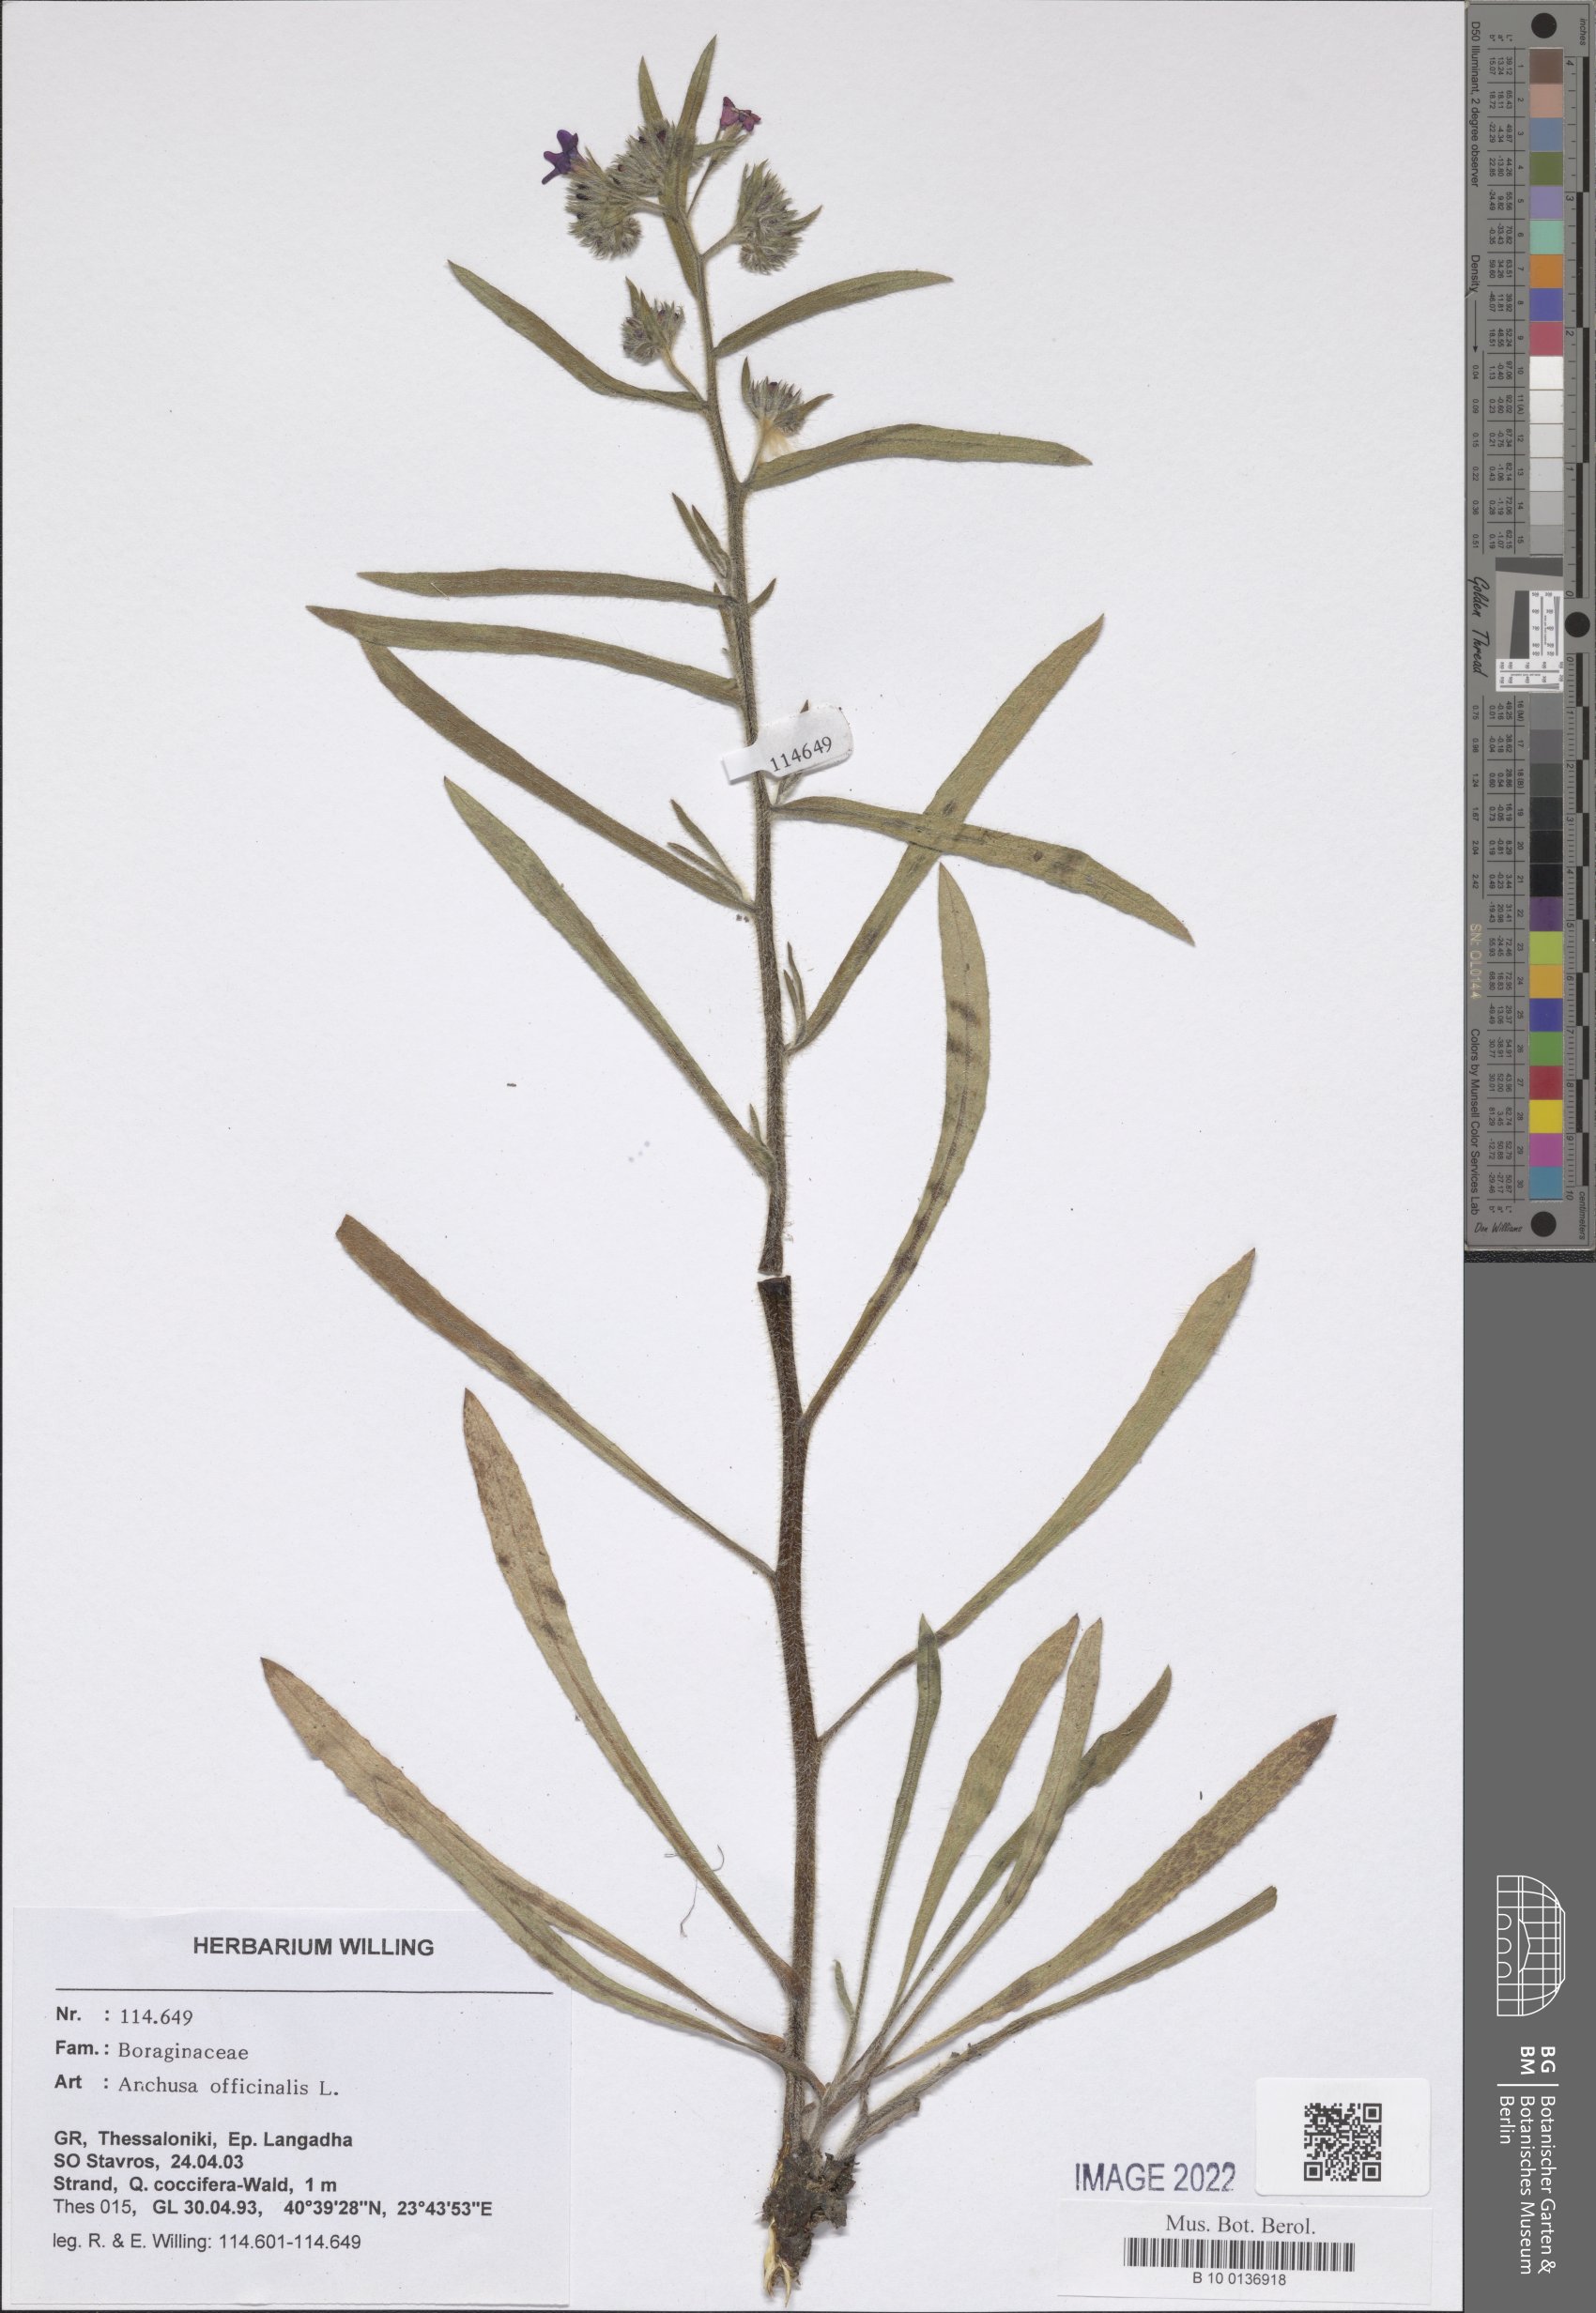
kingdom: Plantae
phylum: Tracheophyta
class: Magnoliopsida
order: Boraginales
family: Boraginaceae
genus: Anchusa
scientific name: Anchusa officinalis
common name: Alkanet
